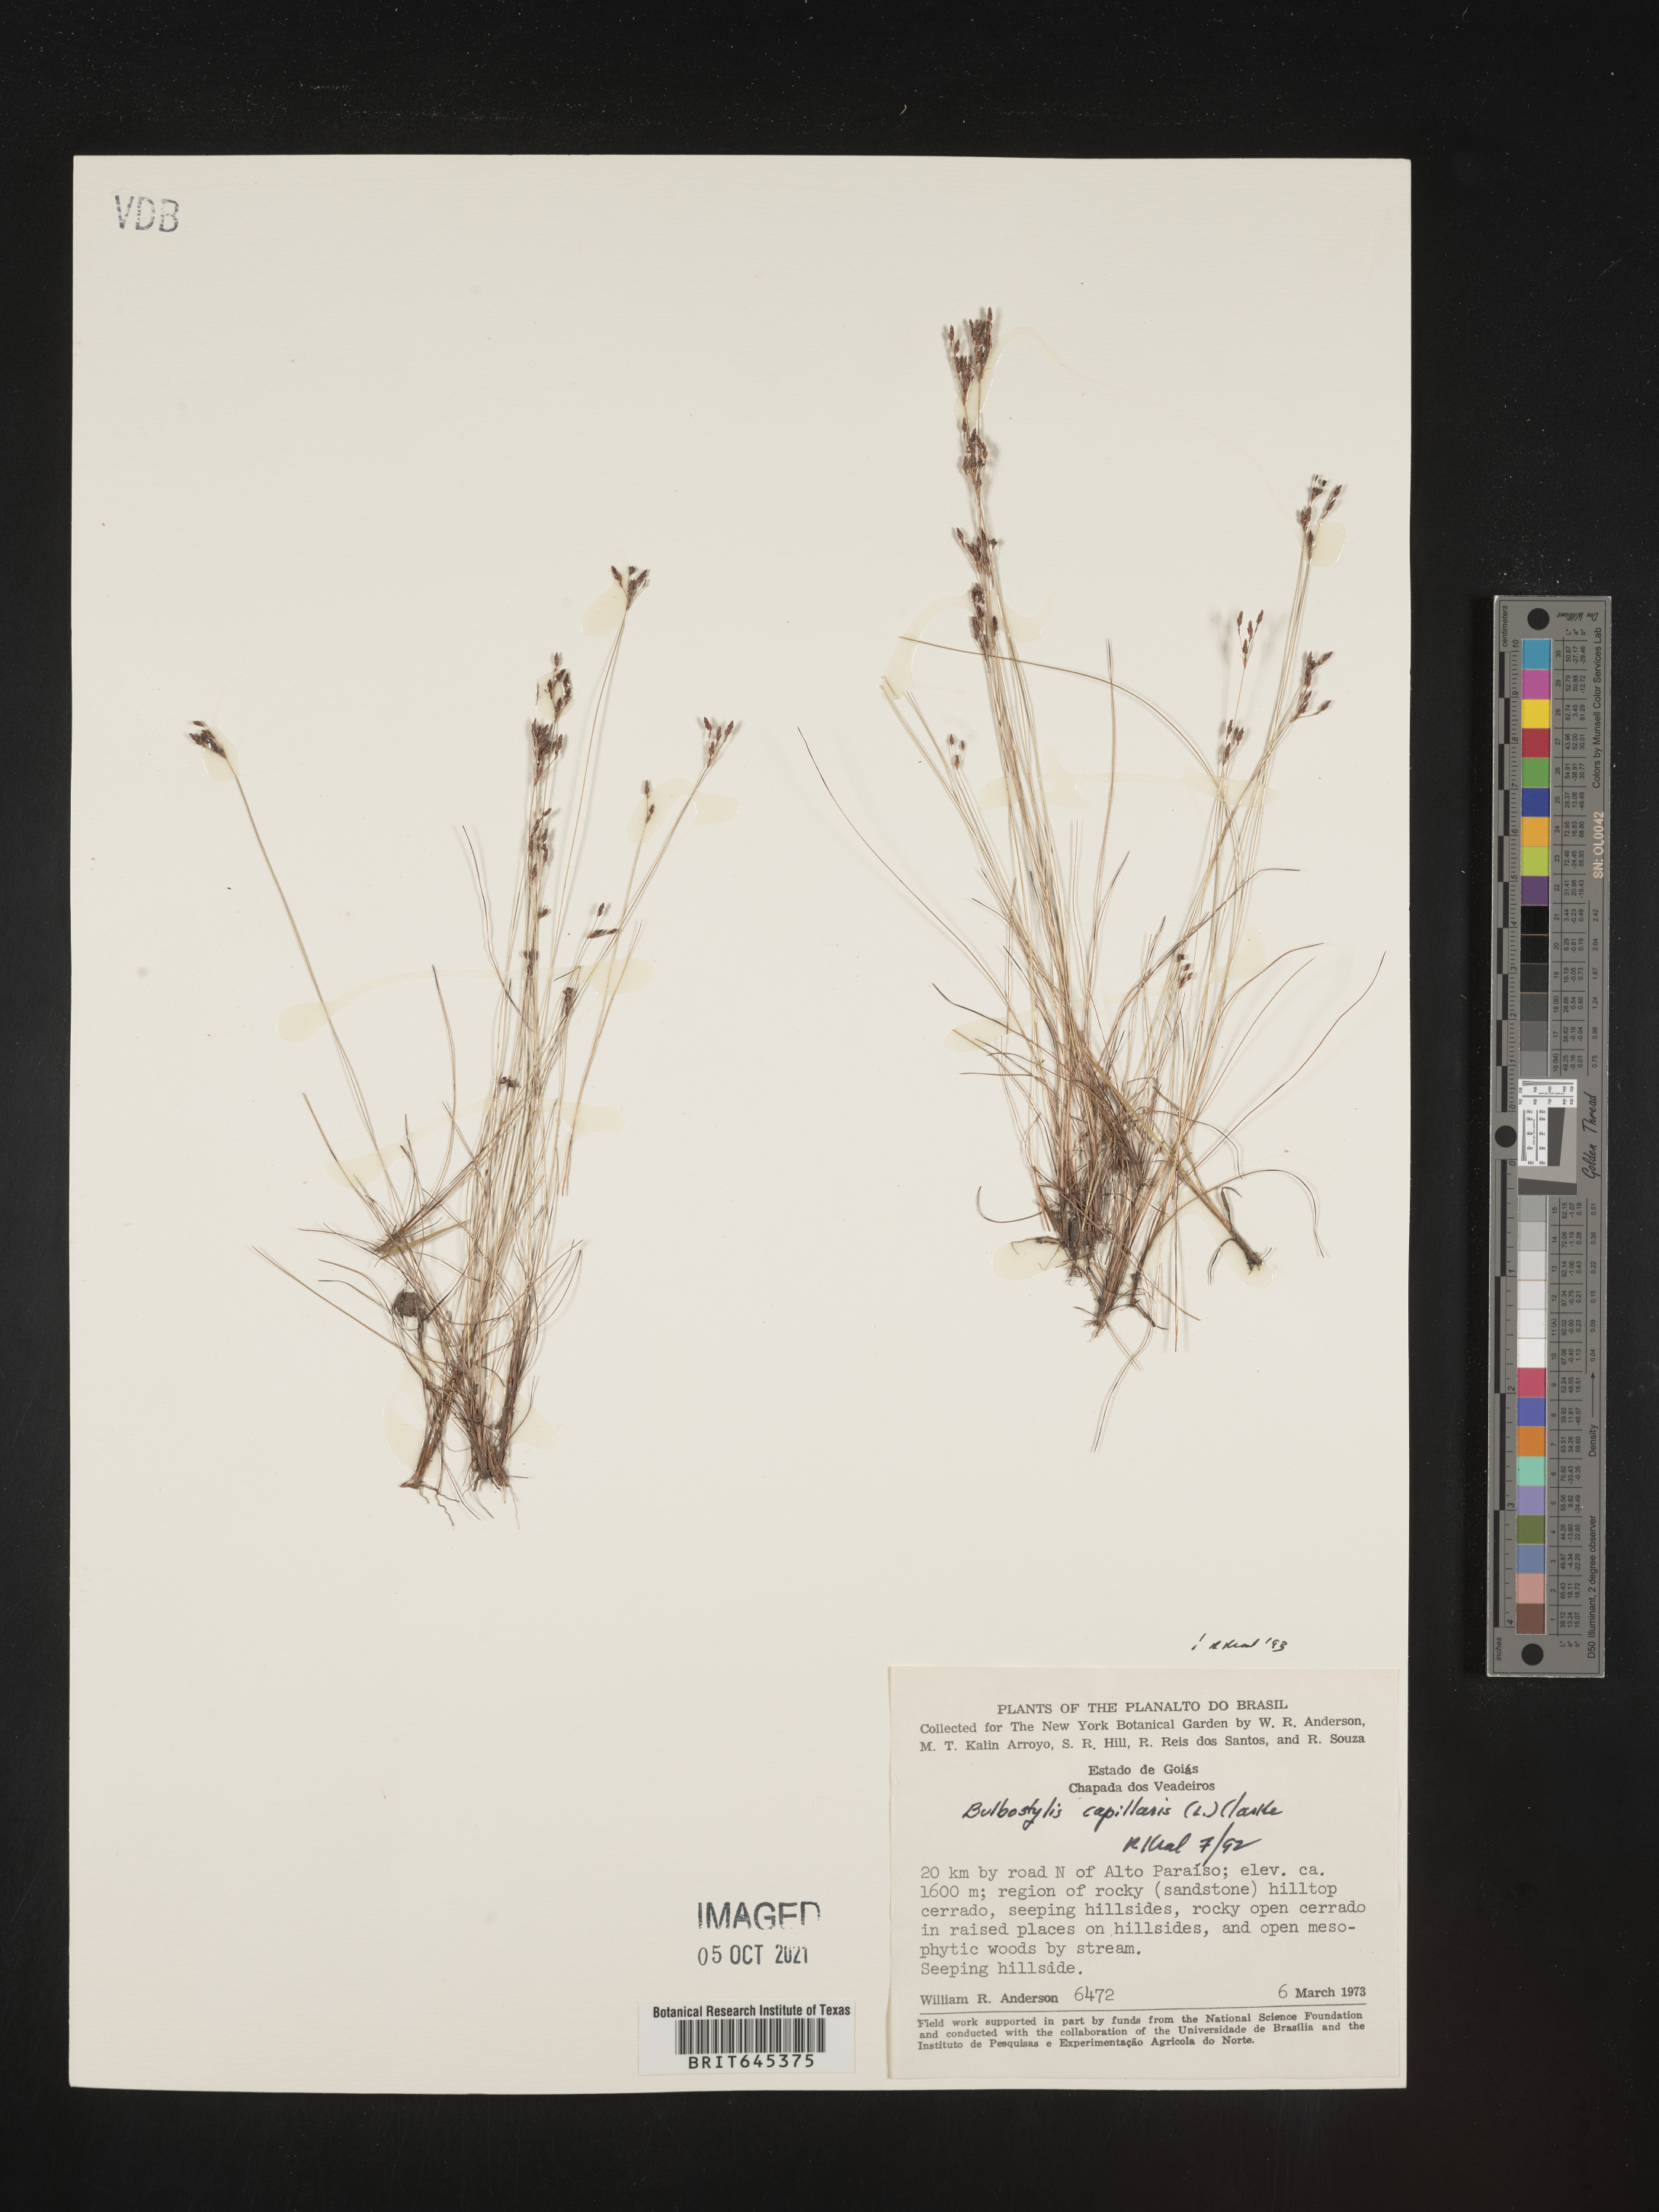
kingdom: Plantae
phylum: Tracheophyta
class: Liliopsida
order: Poales
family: Cyperaceae
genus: Bulbostylis
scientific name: Bulbostylis capillaris
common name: Densetuft hairsedge
